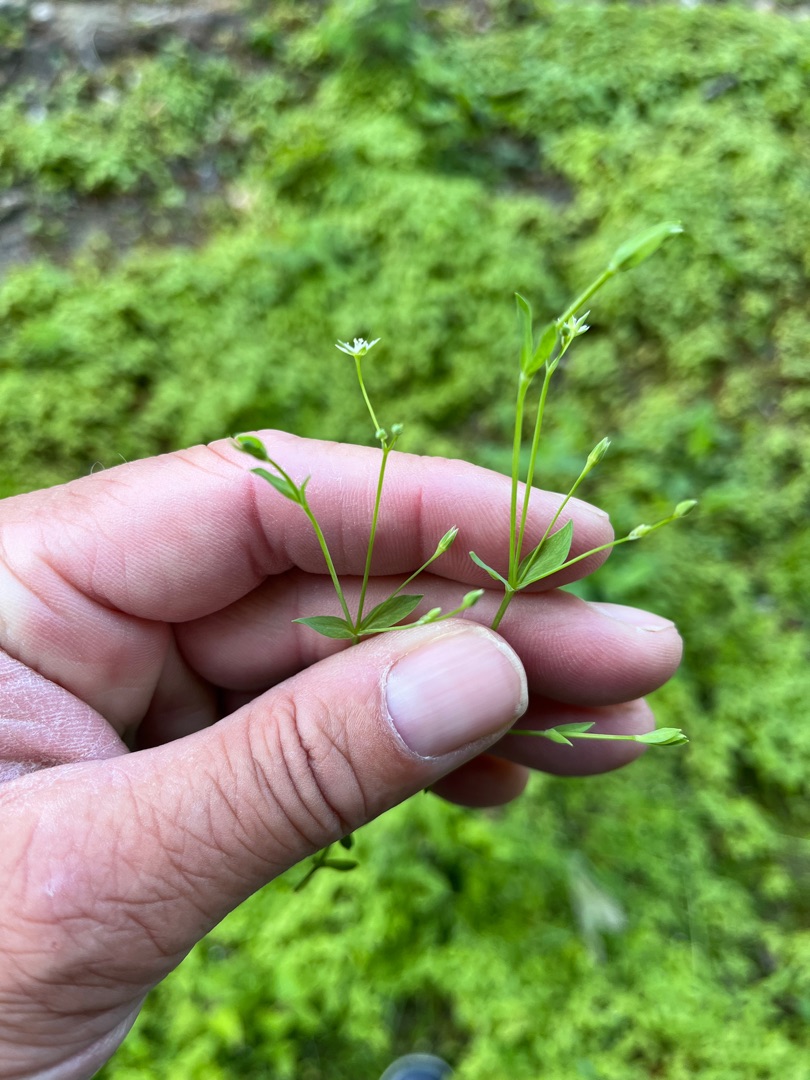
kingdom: Plantae
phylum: Tracheophyta
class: Magnoliopsida
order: Caryophyllales
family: Caryophyllaceae
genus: Stellaria
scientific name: Stellaria alsine
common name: Sump-fladstjerne
